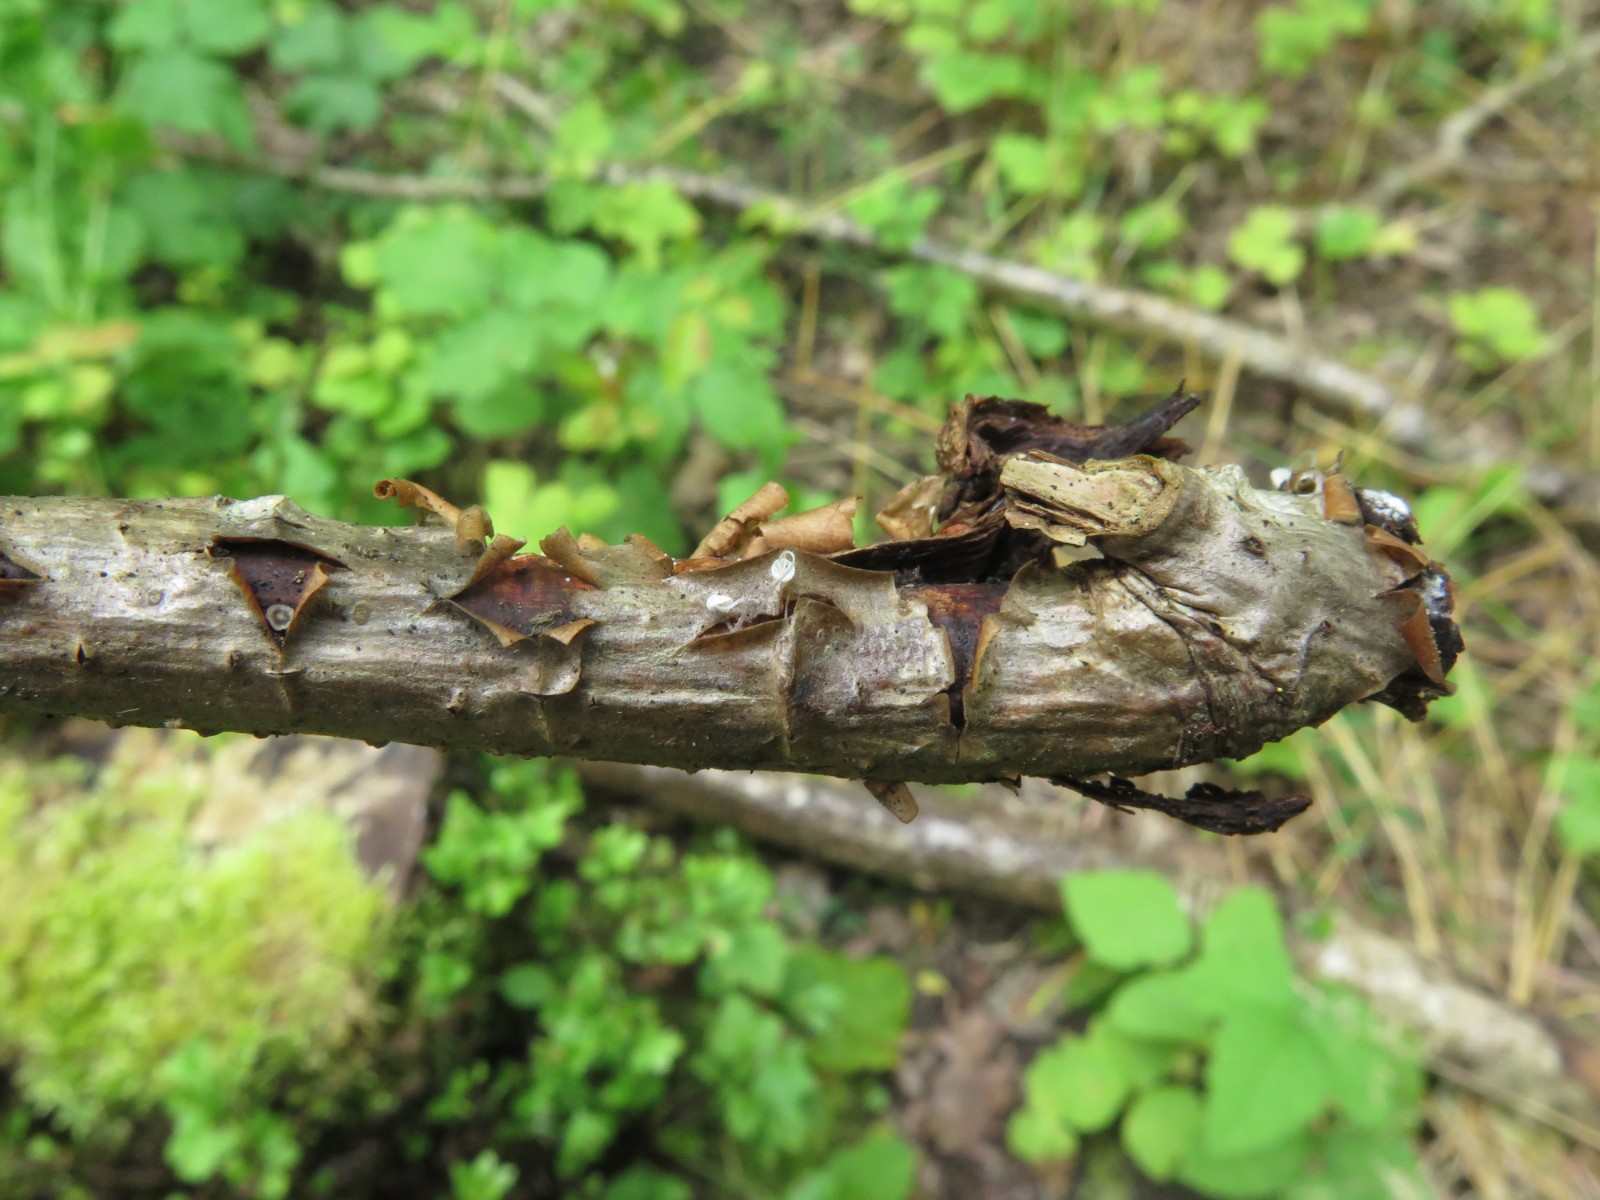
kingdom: Fungi
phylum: Basidiomycota
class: Agaricomycetes
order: Agaricales
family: Porotheleaceae
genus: Phloeomana
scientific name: Phloeomana speirea
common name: kvist-huesvamp
